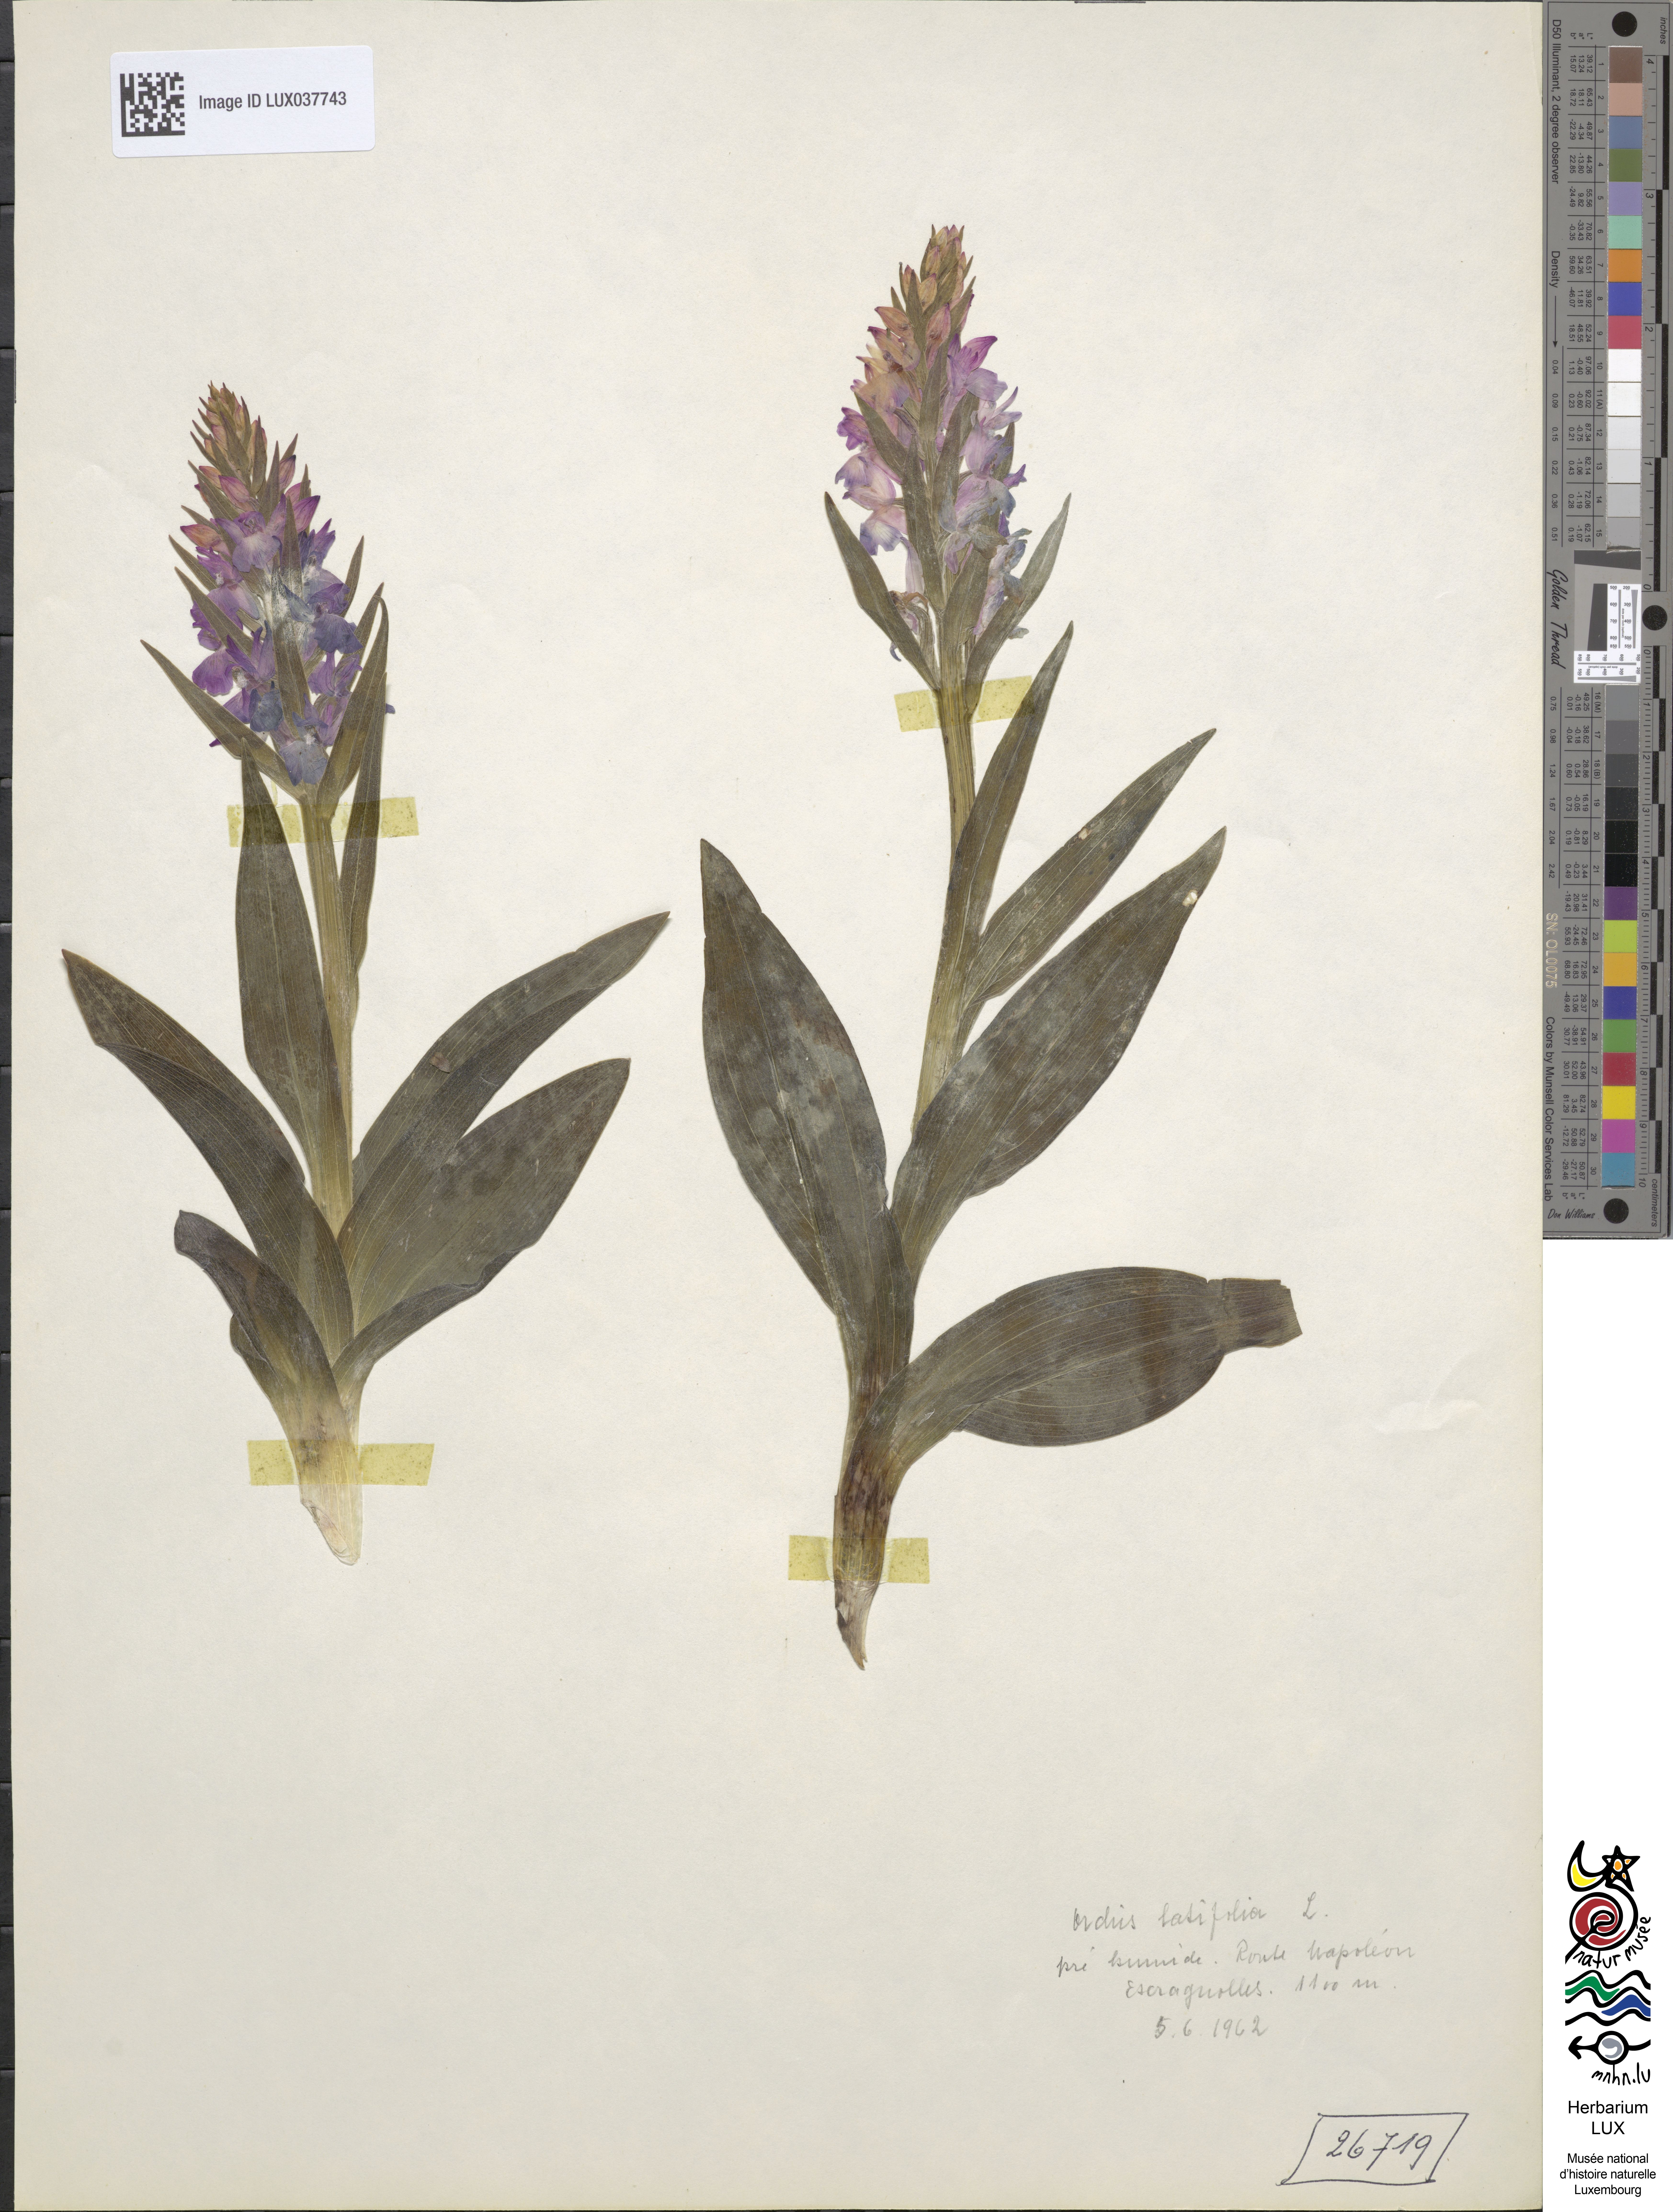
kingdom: Plantae
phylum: Tracheophyta
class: Liliopsida
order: Asparagales
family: Orchidaceae
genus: Dactylorhiza
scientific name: Dactylorhiza incarnata
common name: Early marsh-orchid
